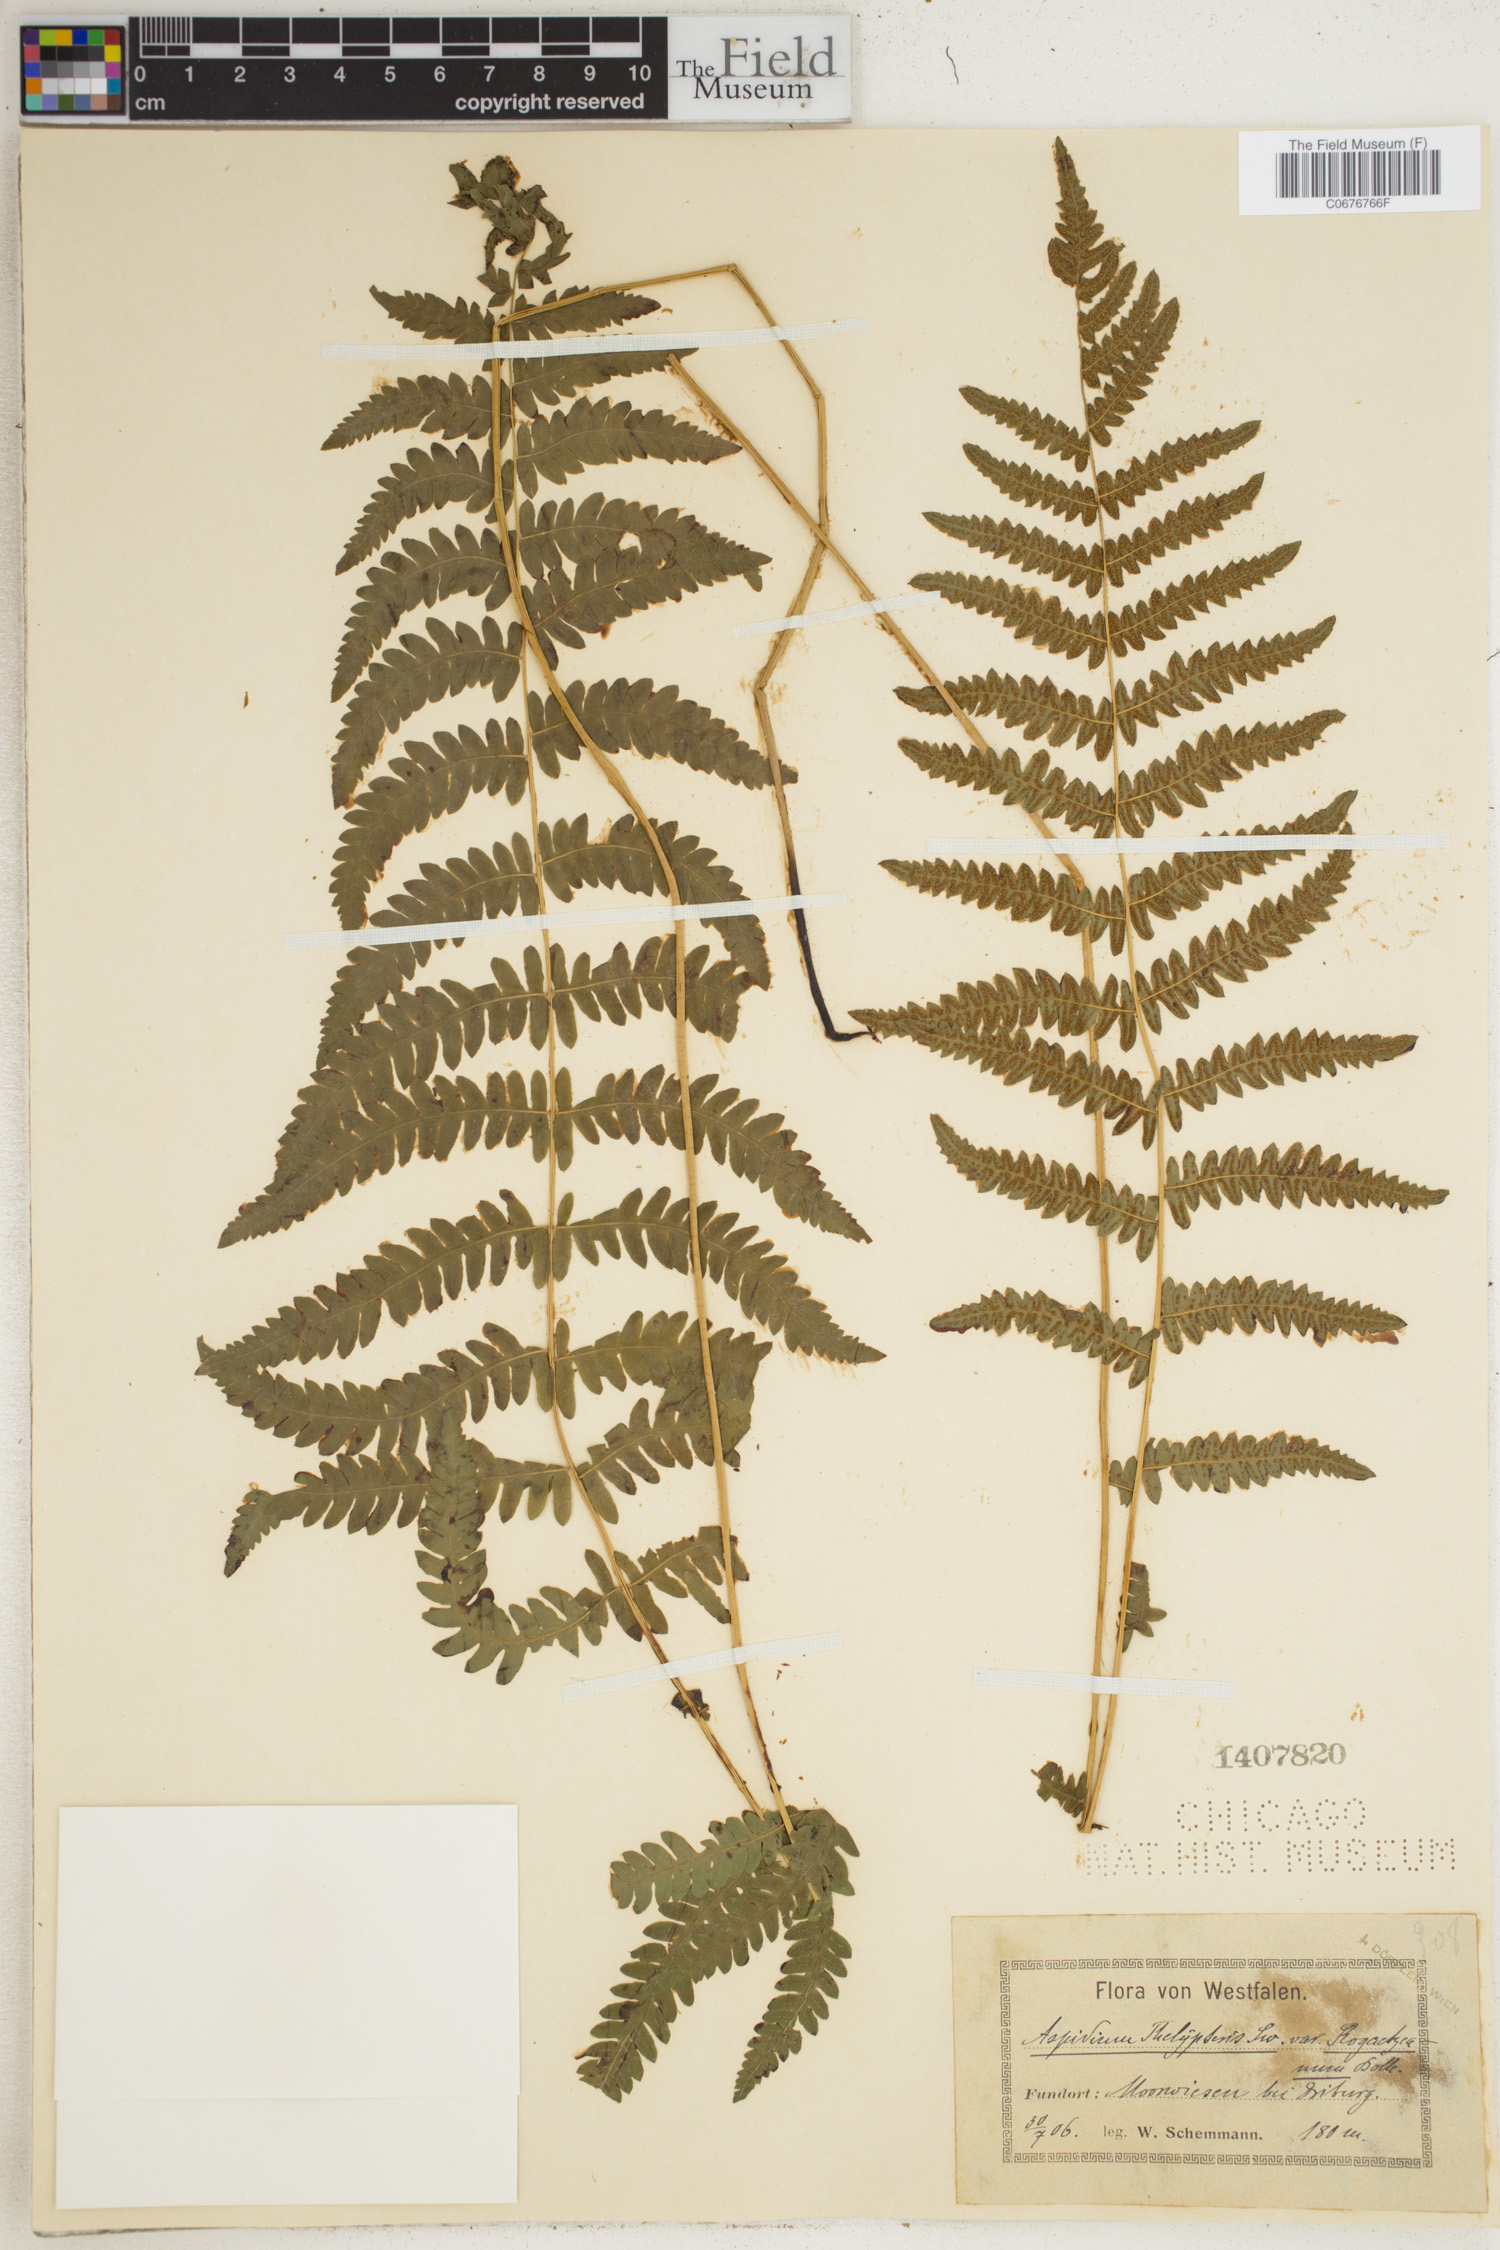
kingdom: Plantae
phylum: Tracheophyta
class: Polypodiopsida
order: Polypodiales
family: Thelypteridaceae
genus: Thelypteris
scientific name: Thelypteris palustris
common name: Marsh fern
